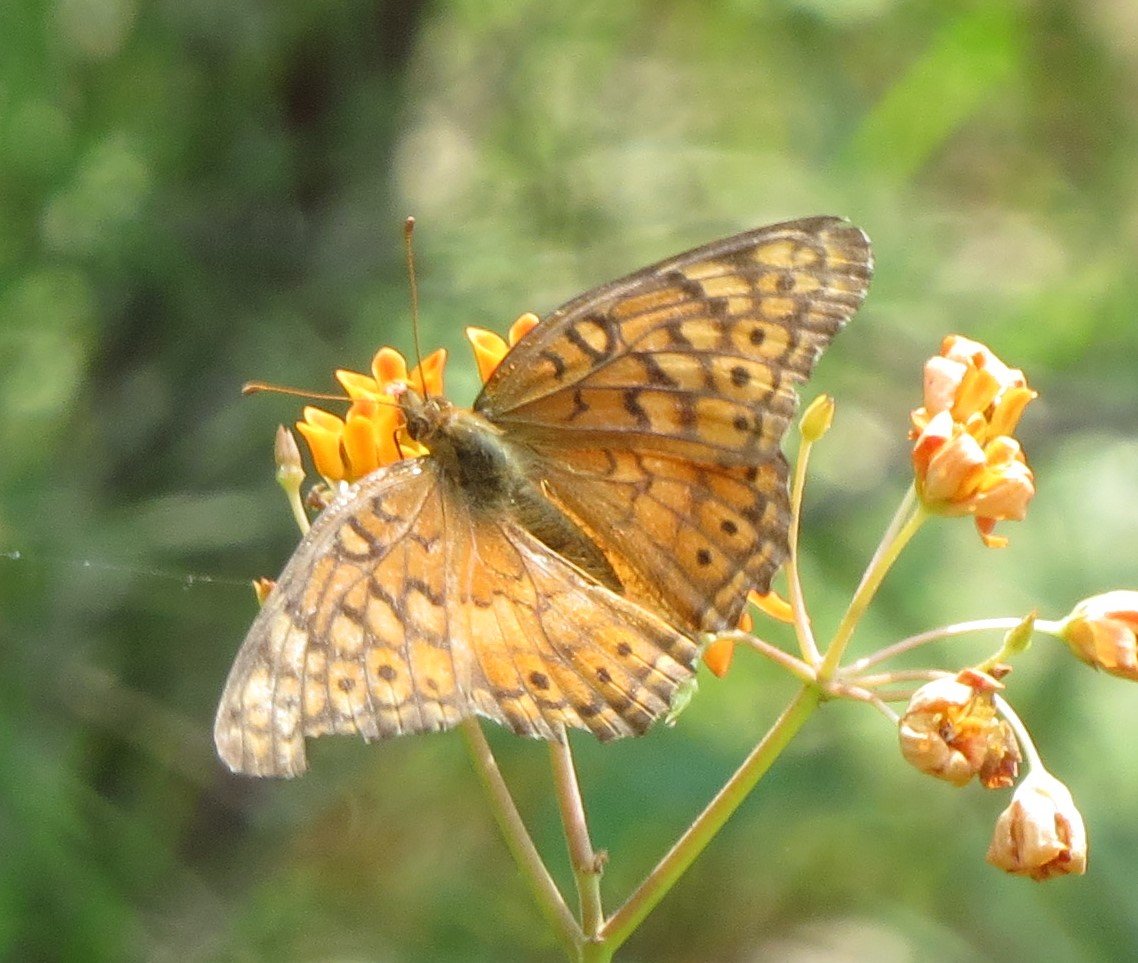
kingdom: Animalia
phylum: Arthropoda
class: Insecta
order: Lepidoptera
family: Nymphalidae
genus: Euptoieta
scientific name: Euptoieta claudia
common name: Variegated Fritillary
